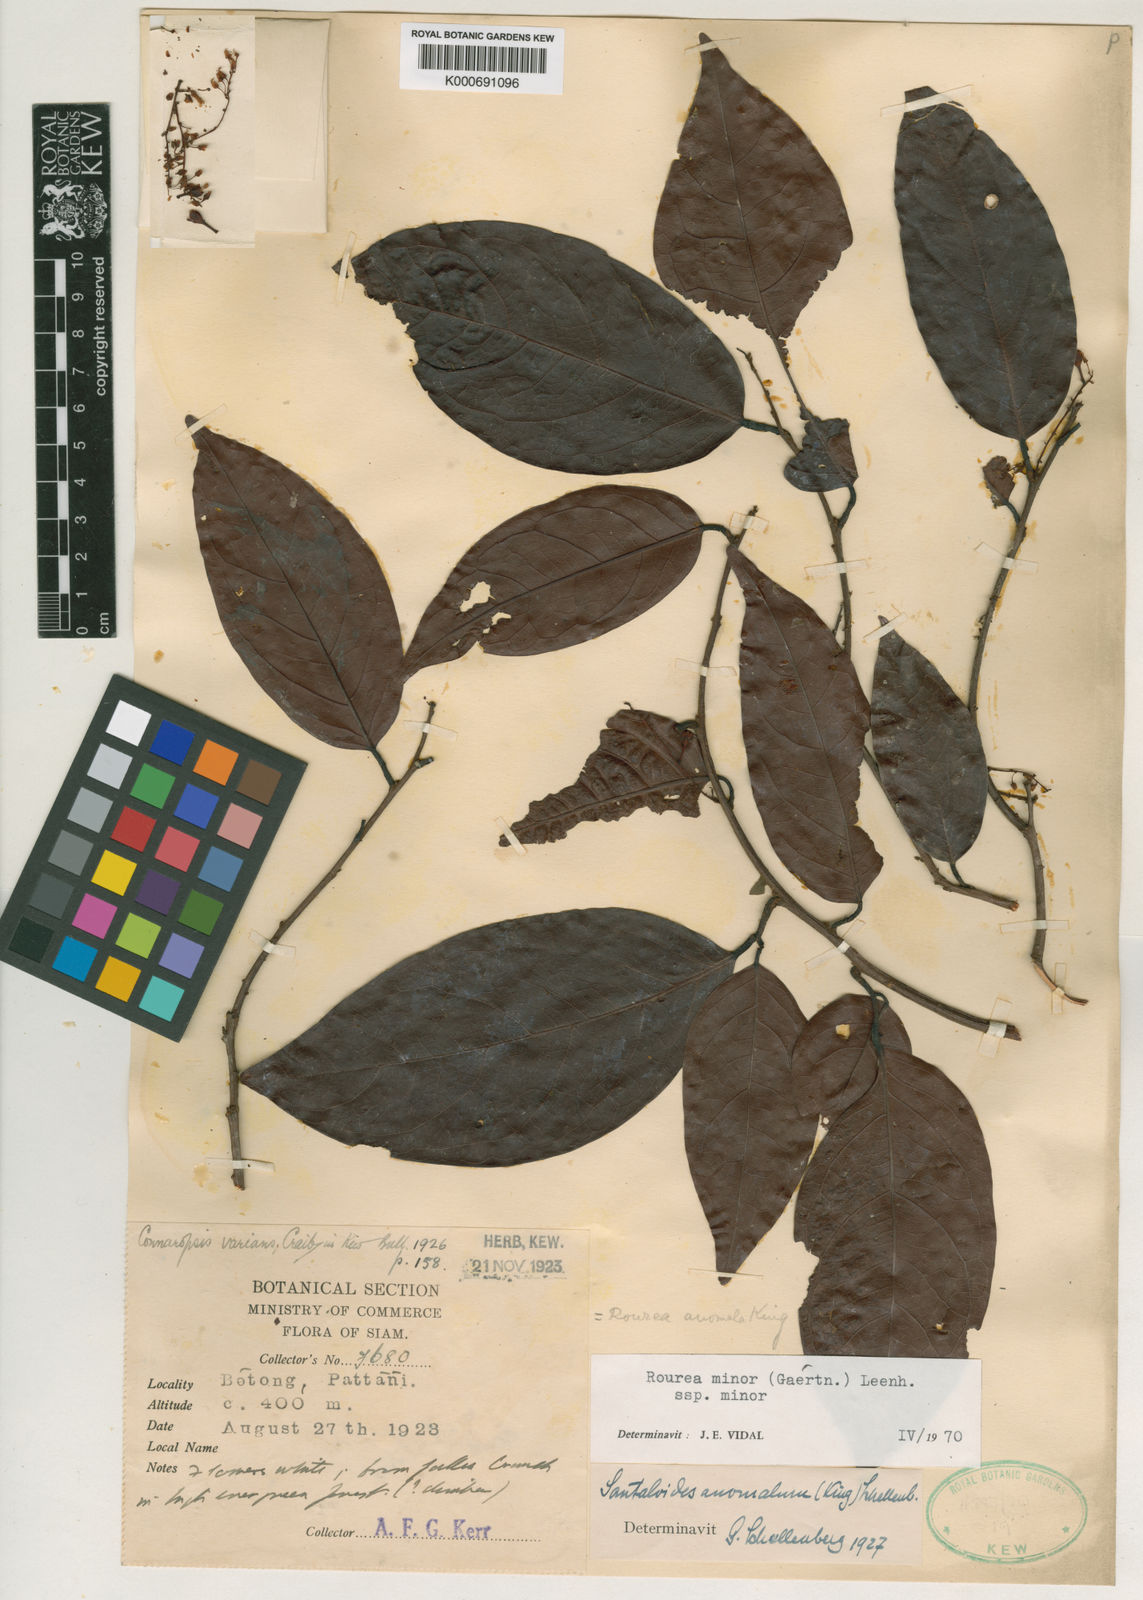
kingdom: Plantae
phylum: Tracheophyta
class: Magnoliopsida
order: Oxalidales
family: Connaraceae
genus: Rourea
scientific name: Rourea
